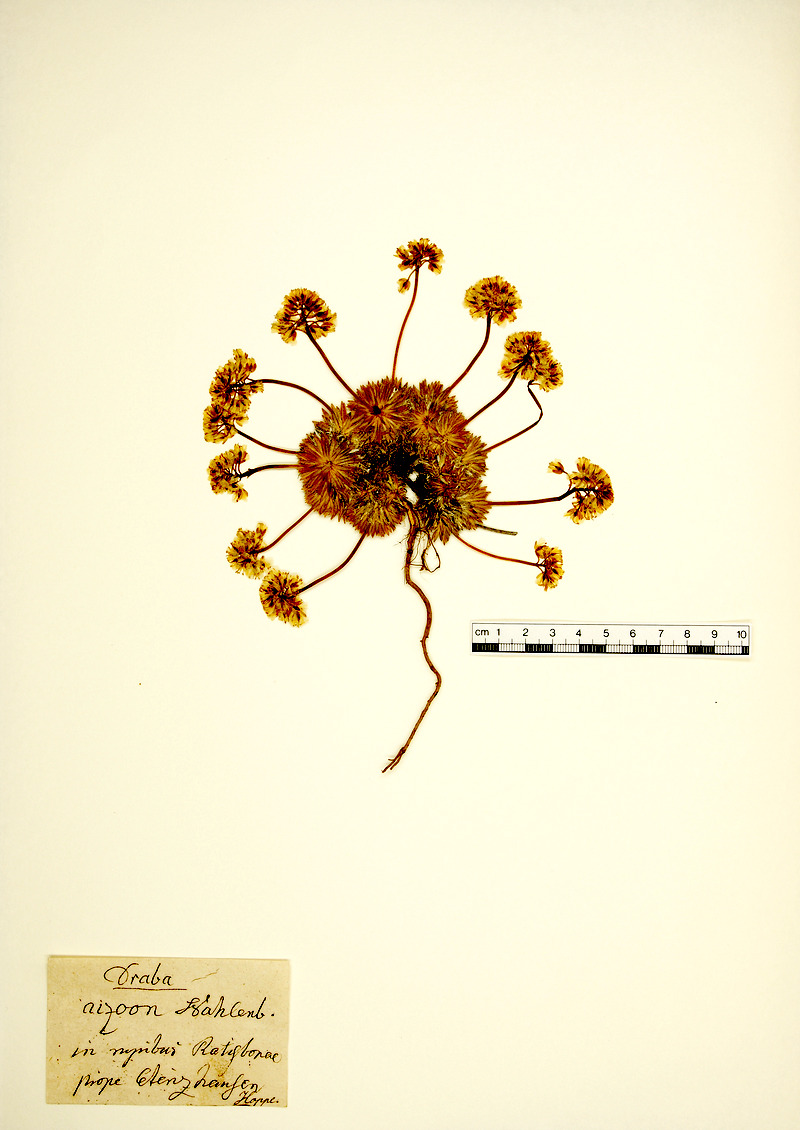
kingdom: Plantae
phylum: Tracheophyta
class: Magnoliopsida
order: Brassicales
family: Brassicaceae
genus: Draba
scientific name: Draba aizoides
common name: Yellow whitlowgrass
